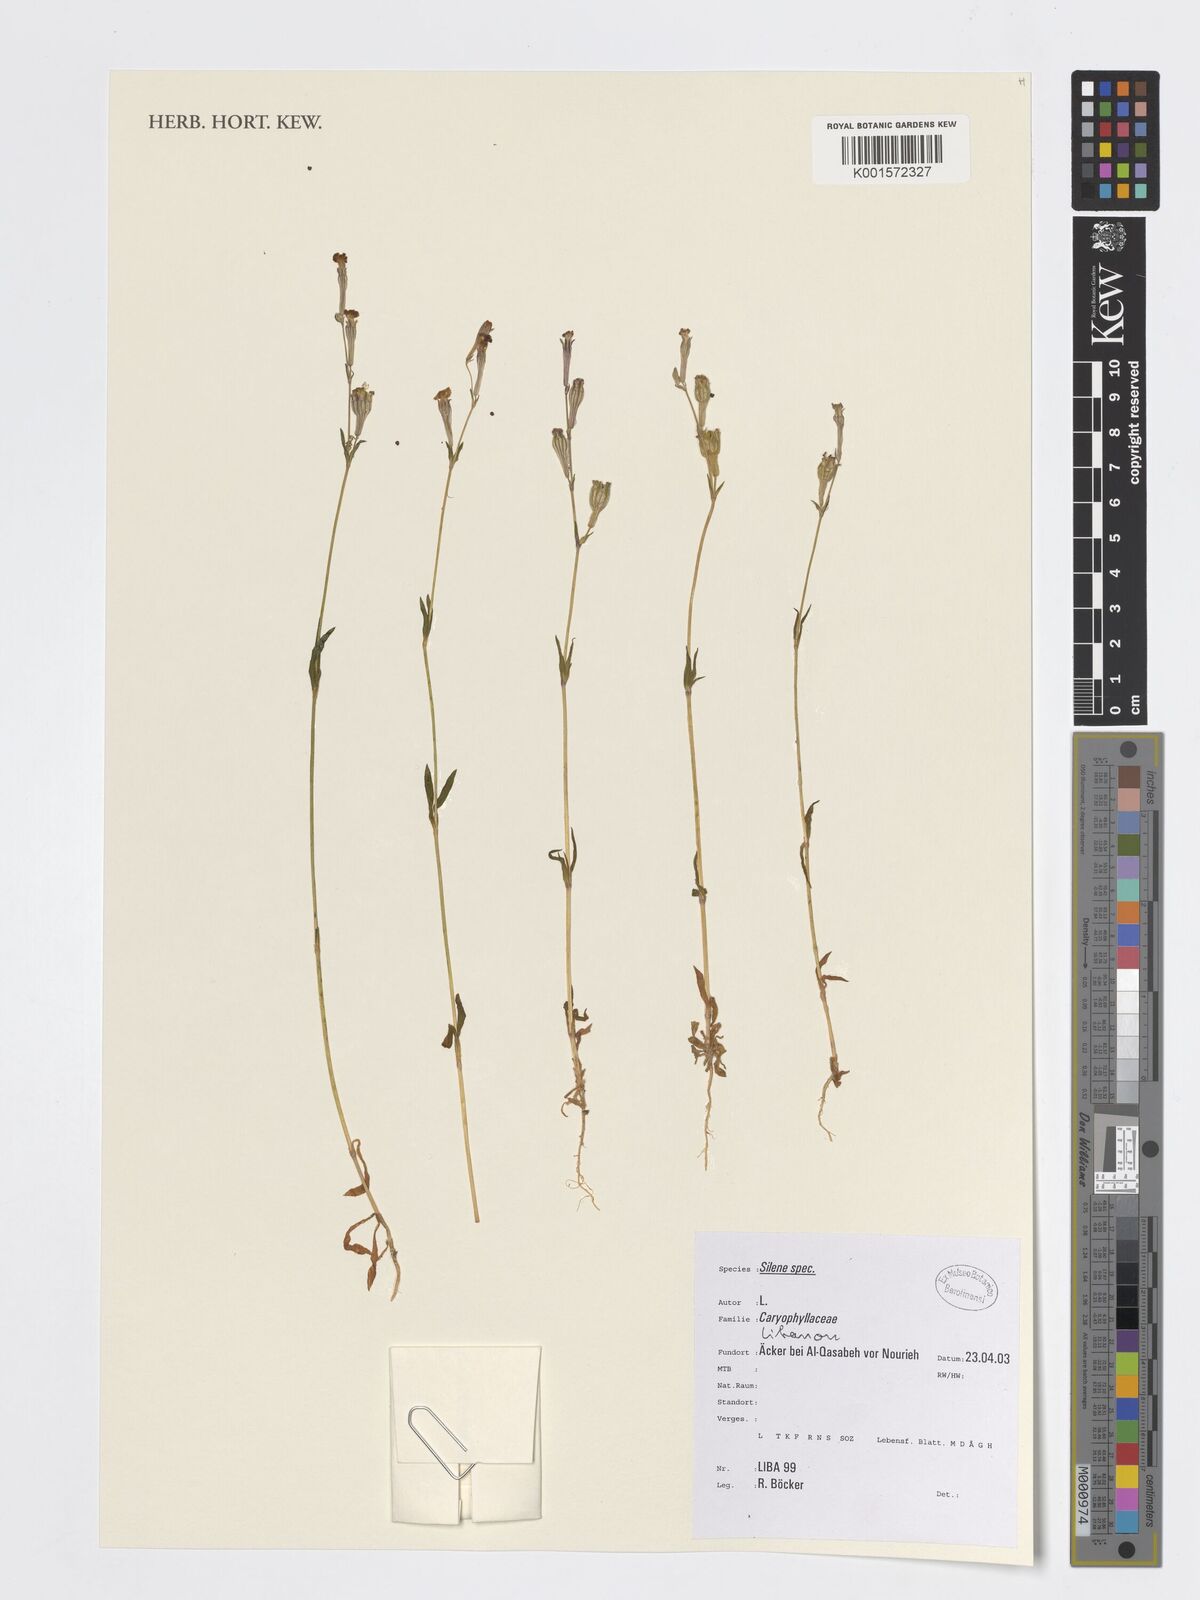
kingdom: Plantae
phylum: Tracheophyta
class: Magnoliopsida
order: Caryophyllales
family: Caryophyllaceae
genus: Silene
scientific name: Silene
